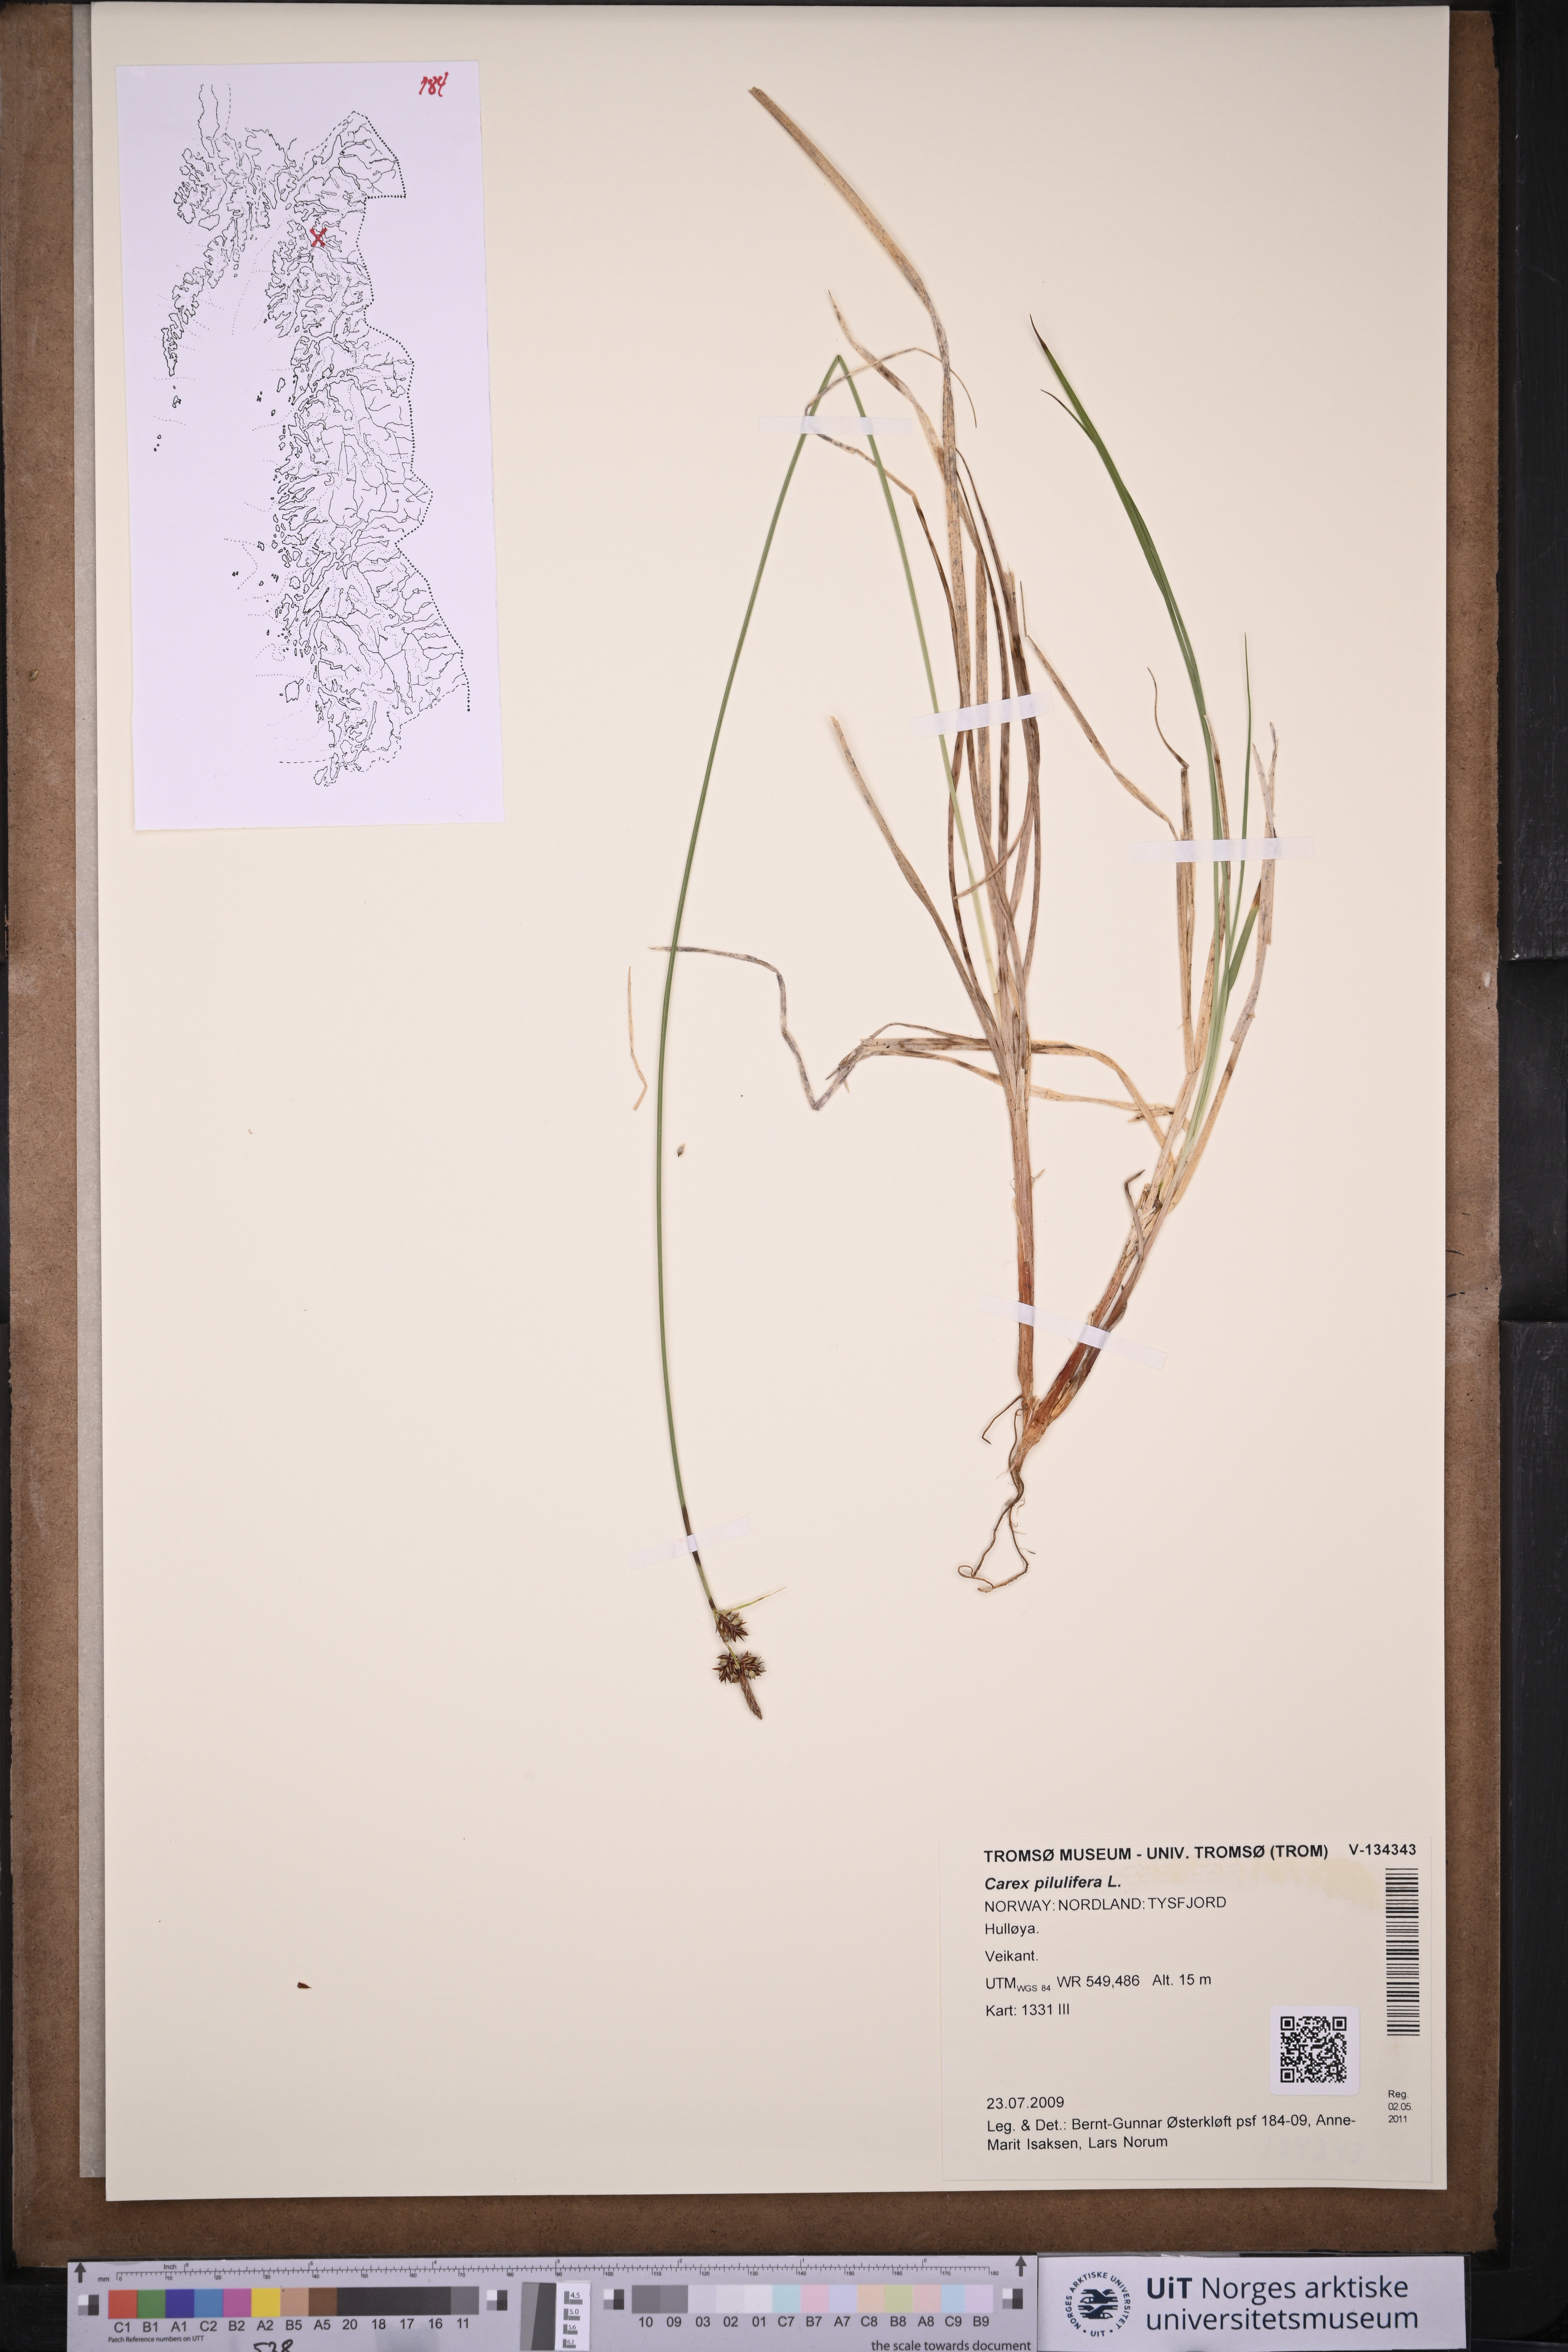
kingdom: Plantae
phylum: Tracheophyta
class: Liliopsida
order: Poales
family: Cyperaceae
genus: Carex
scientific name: Carex pilulifera
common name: Pill sedge
